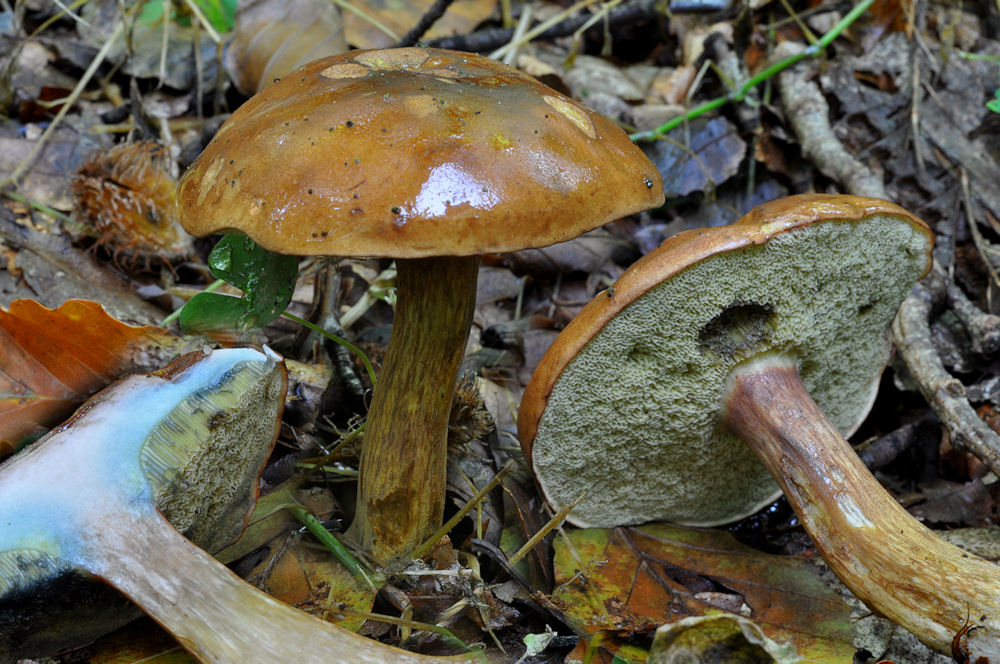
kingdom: Fungi
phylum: Basidiomycota
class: Agaricomycetes
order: Boletales
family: Boletaceae
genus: Imleria
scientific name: Imleria badia
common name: brunstokket rørhat
